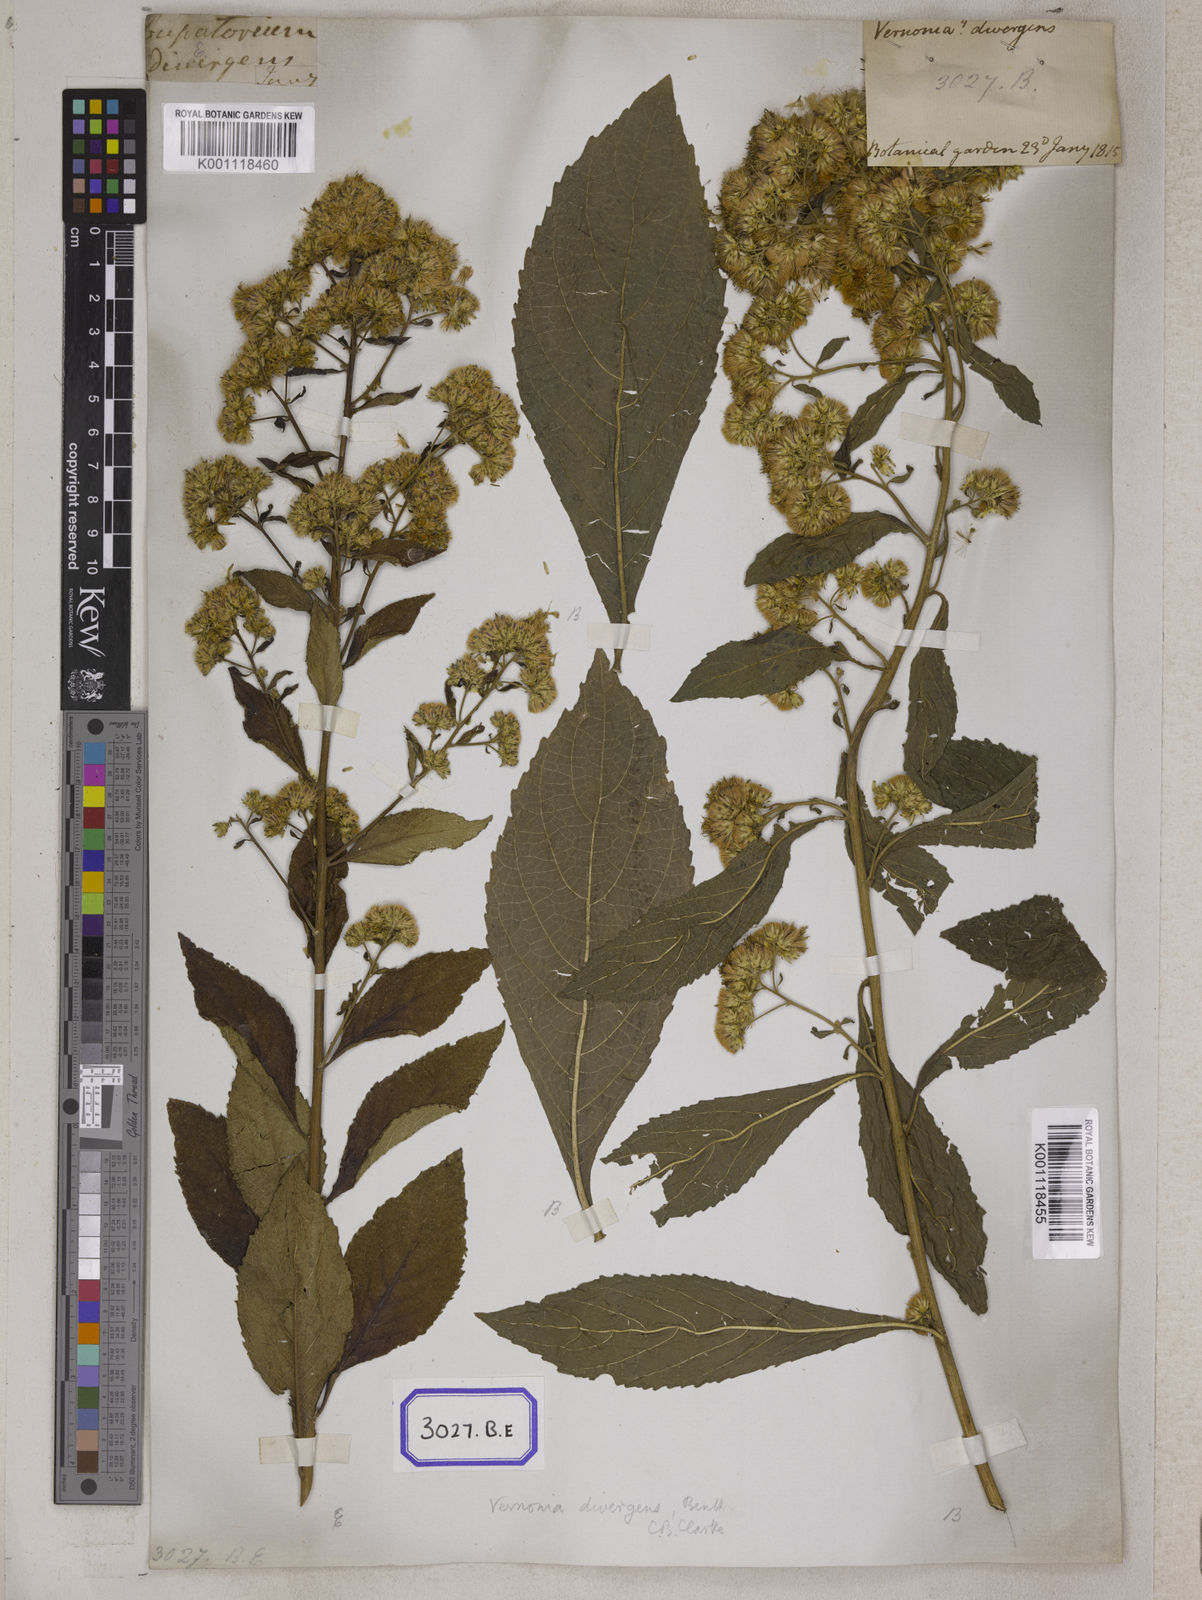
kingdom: Plantae
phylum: Tracheophyta
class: Magnoliopsida
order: Asterales
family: Asteraceae
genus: Acilepis
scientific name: Acilepis divergens
